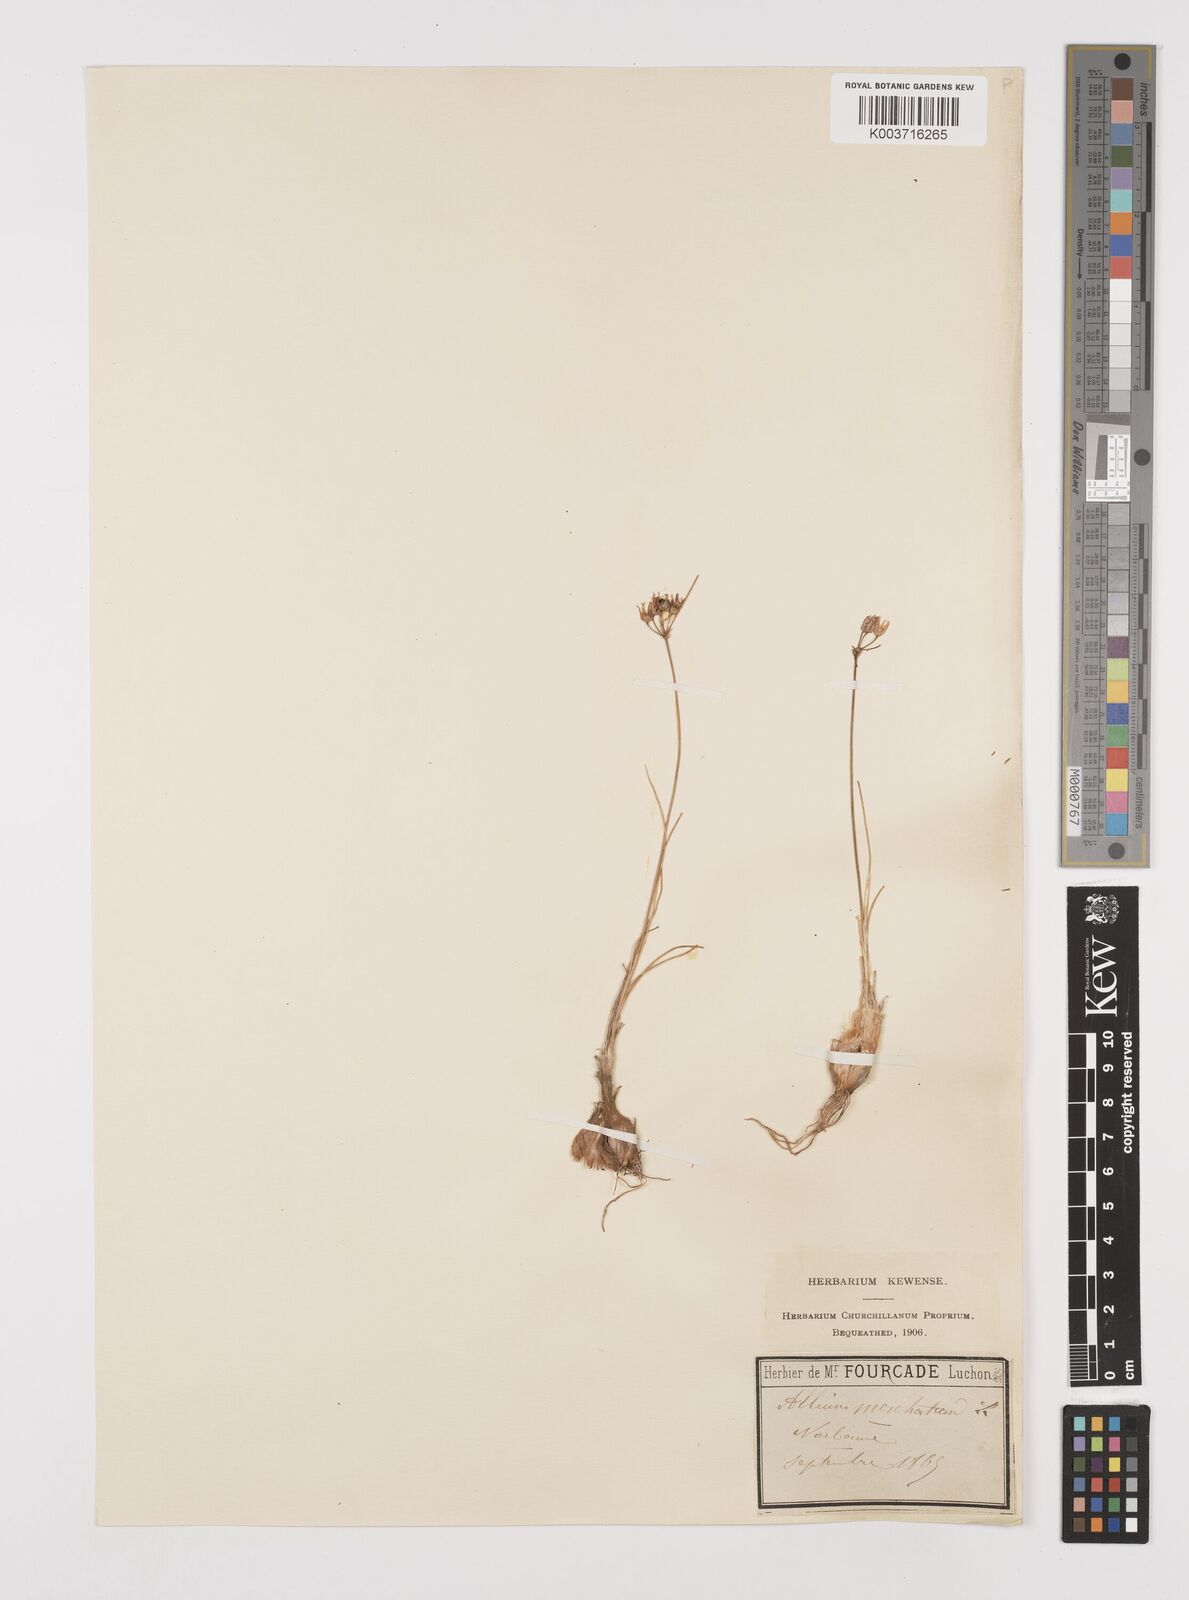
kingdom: Plantae
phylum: Tracheophyta
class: Liliopsida
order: Asparagales
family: Amaryllidaceae
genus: Allium
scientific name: Allium moschatum
